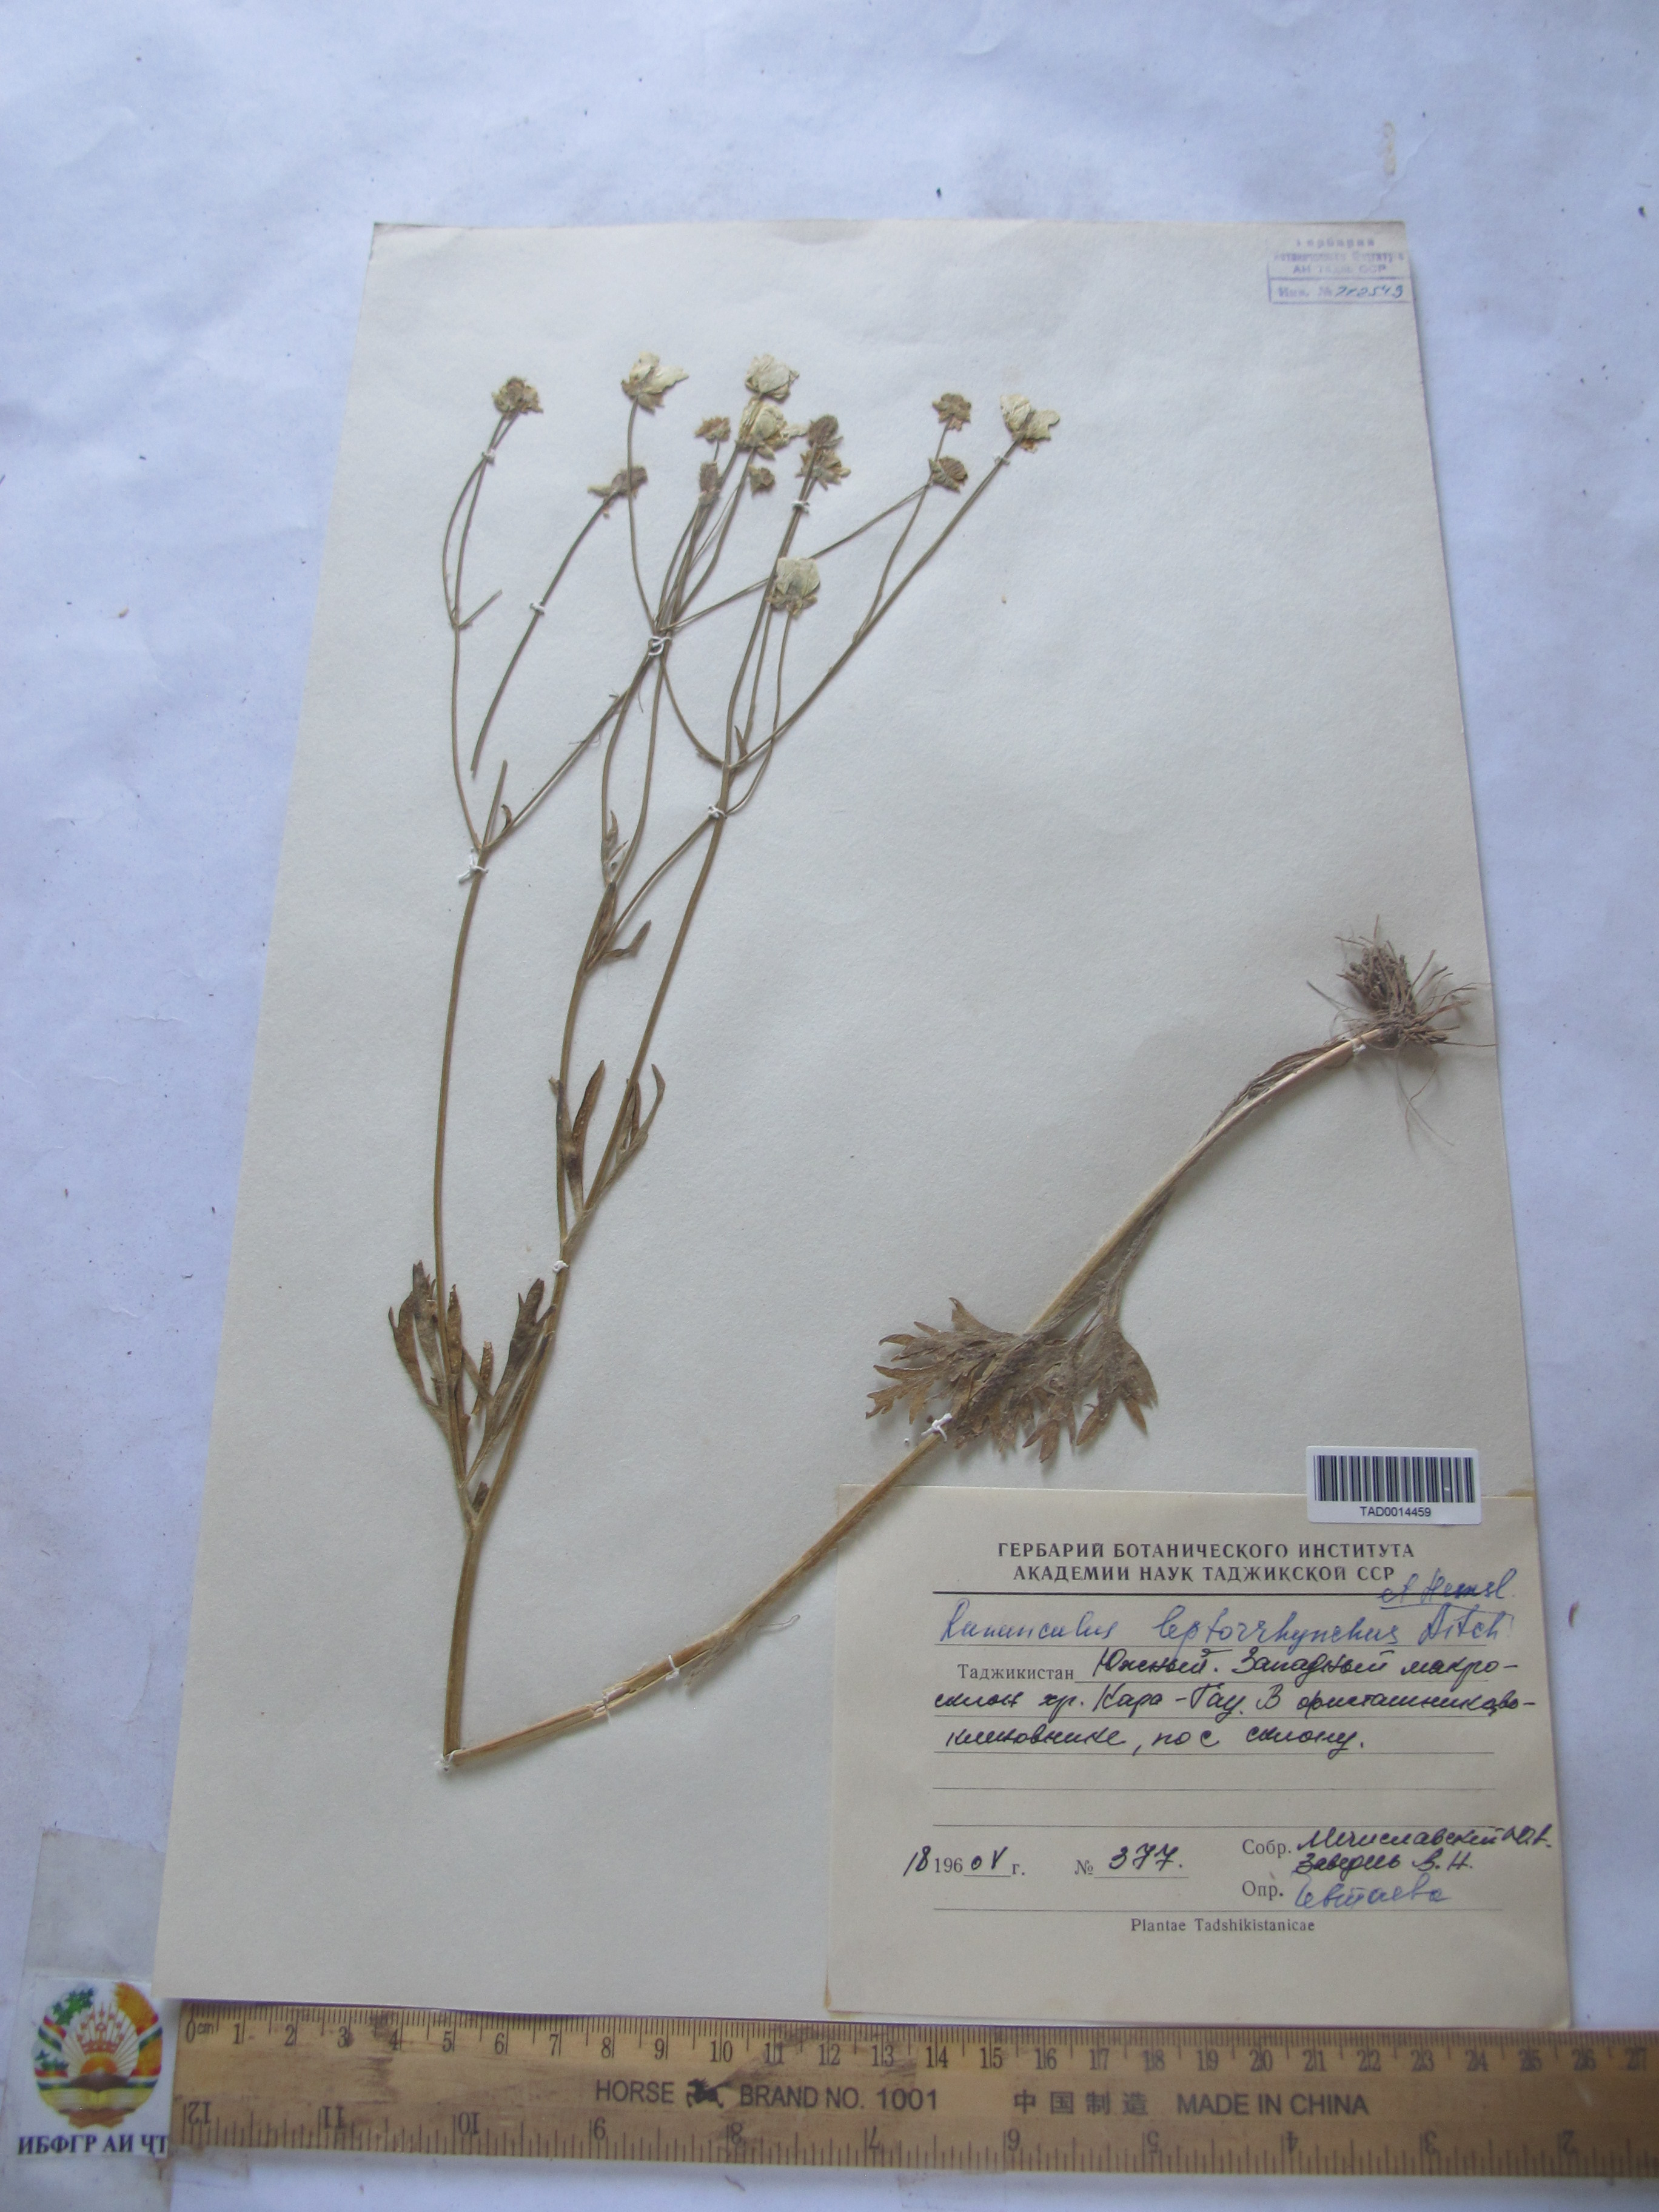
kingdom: Plantae
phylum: Tracheophyta
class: Magnoliopsida
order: Ranunculales
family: Ranunculaceae
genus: Ranunculus
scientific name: Ranunculus leptorrhynchus
